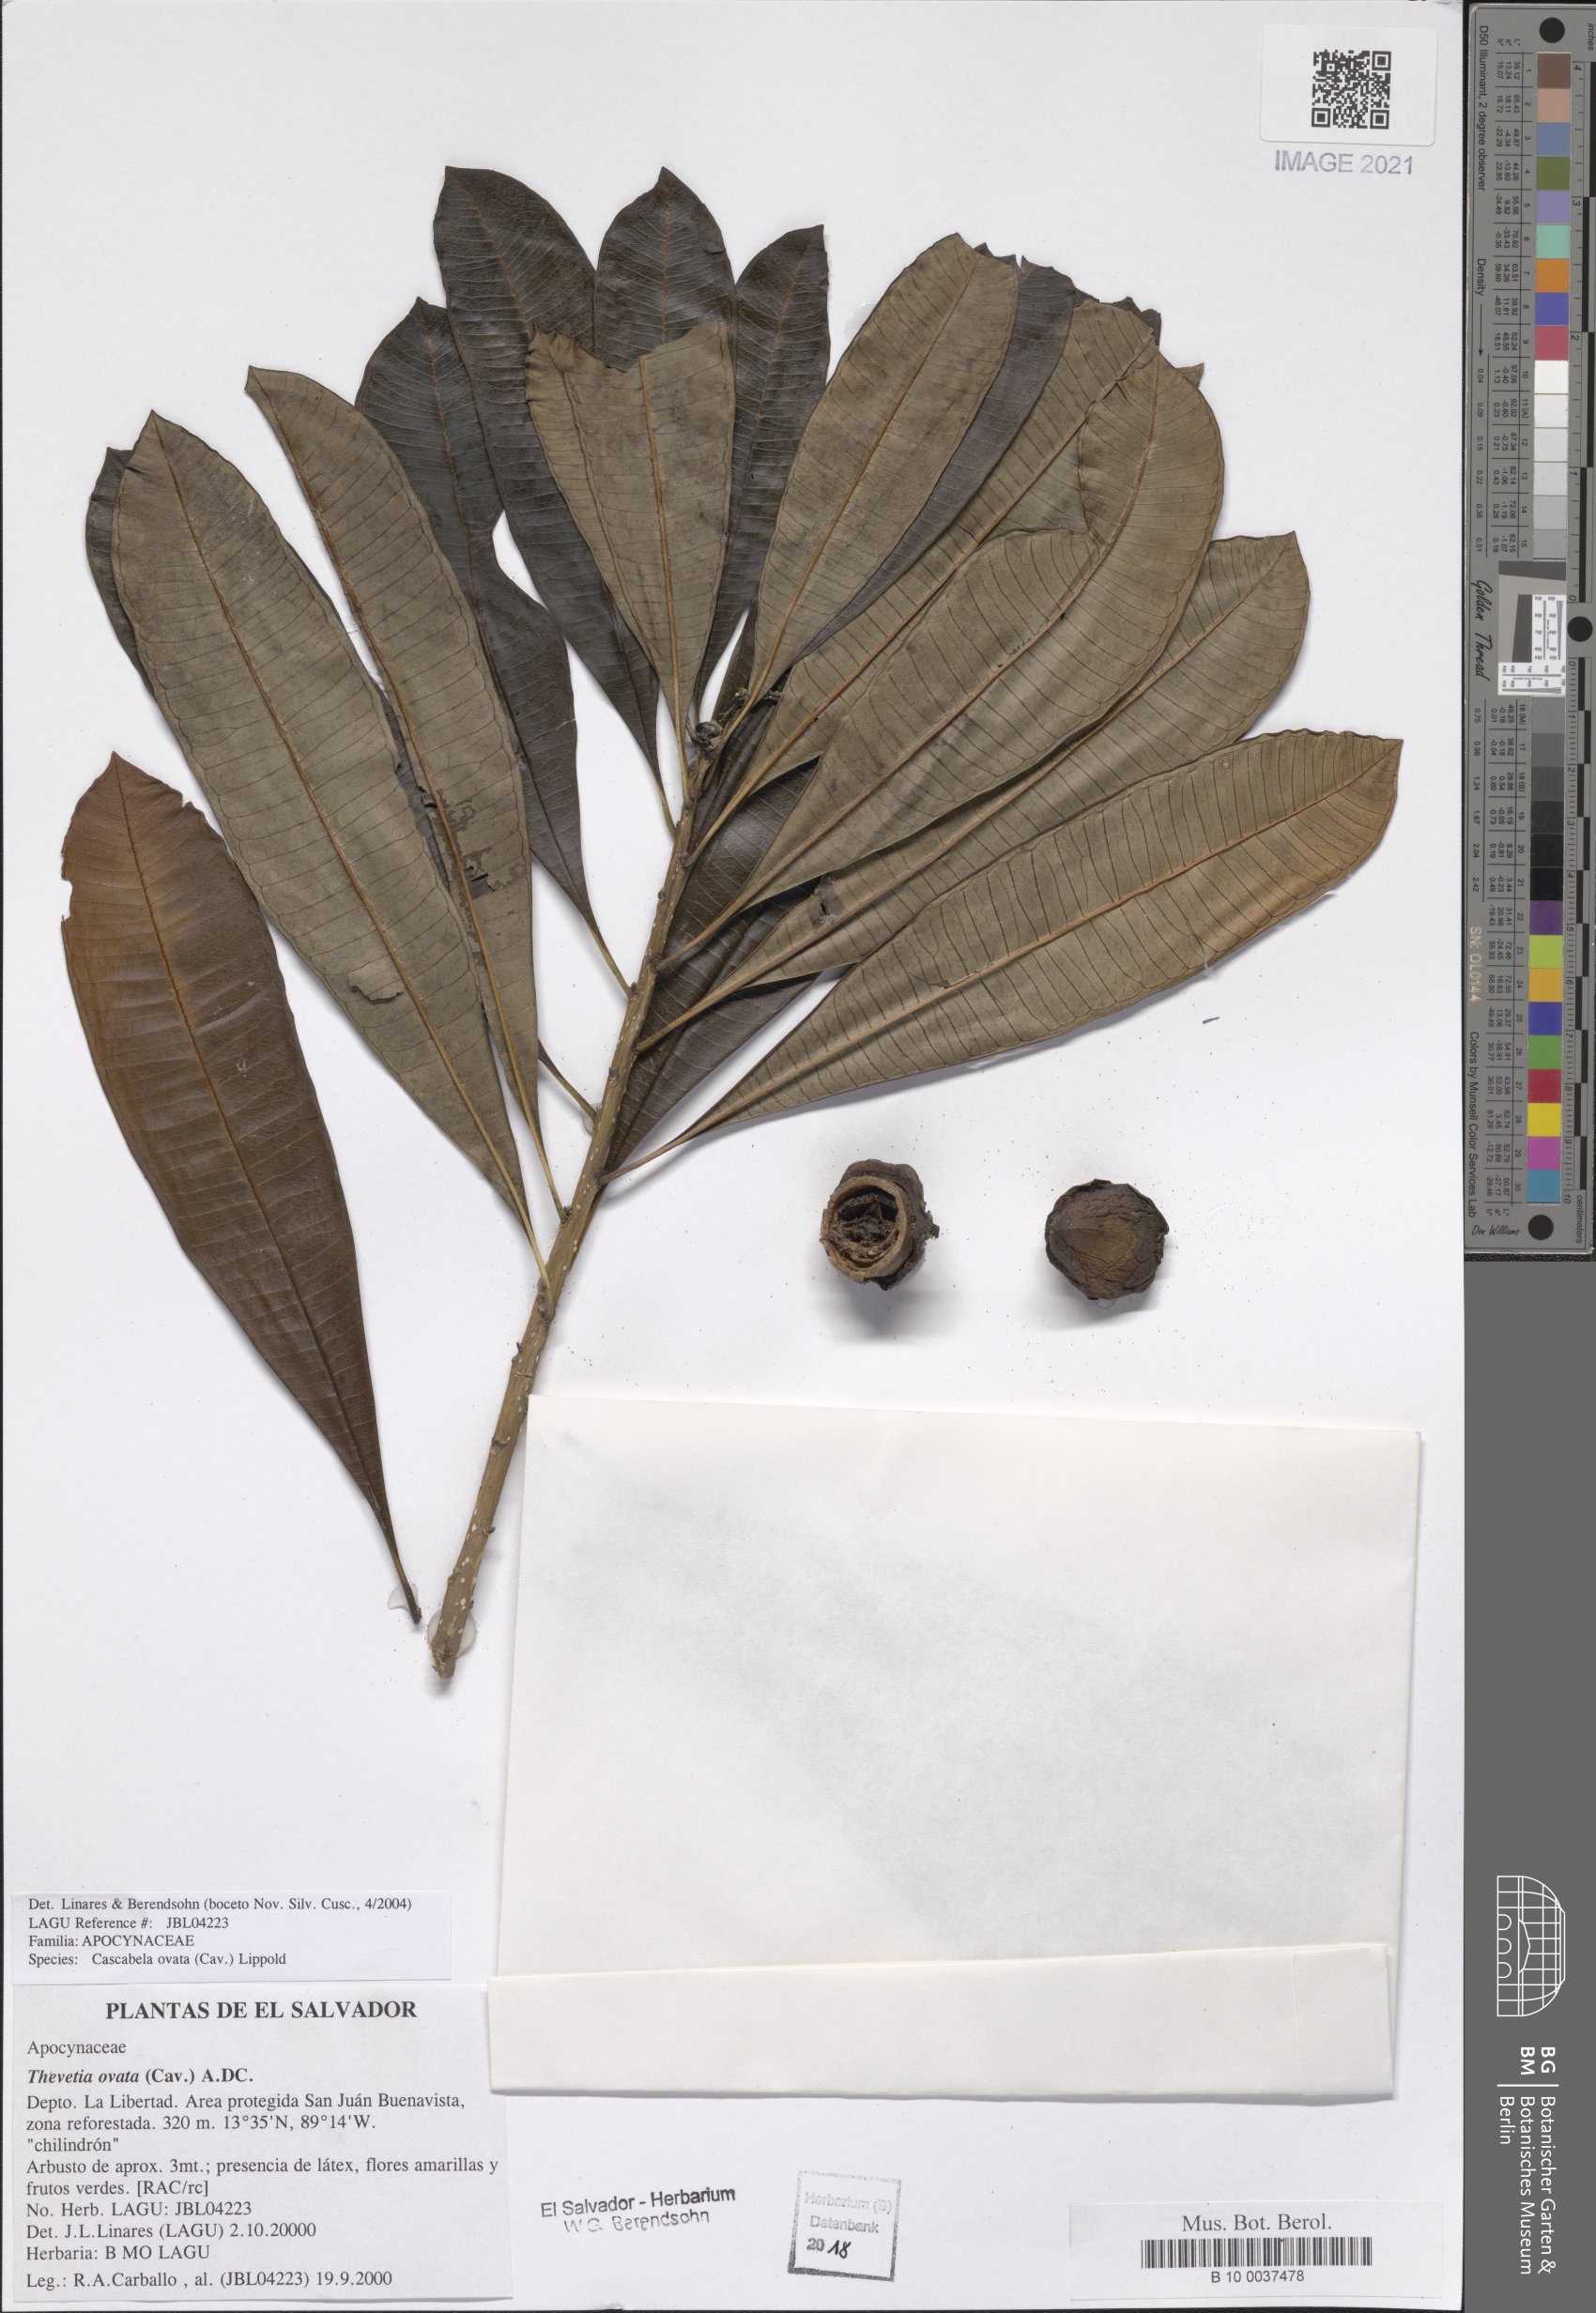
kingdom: Plantae
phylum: Tracheophyta
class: Magnoliopsida
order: Gentianales
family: Apocynaceae
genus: Cascabela
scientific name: Cascabela ovata
